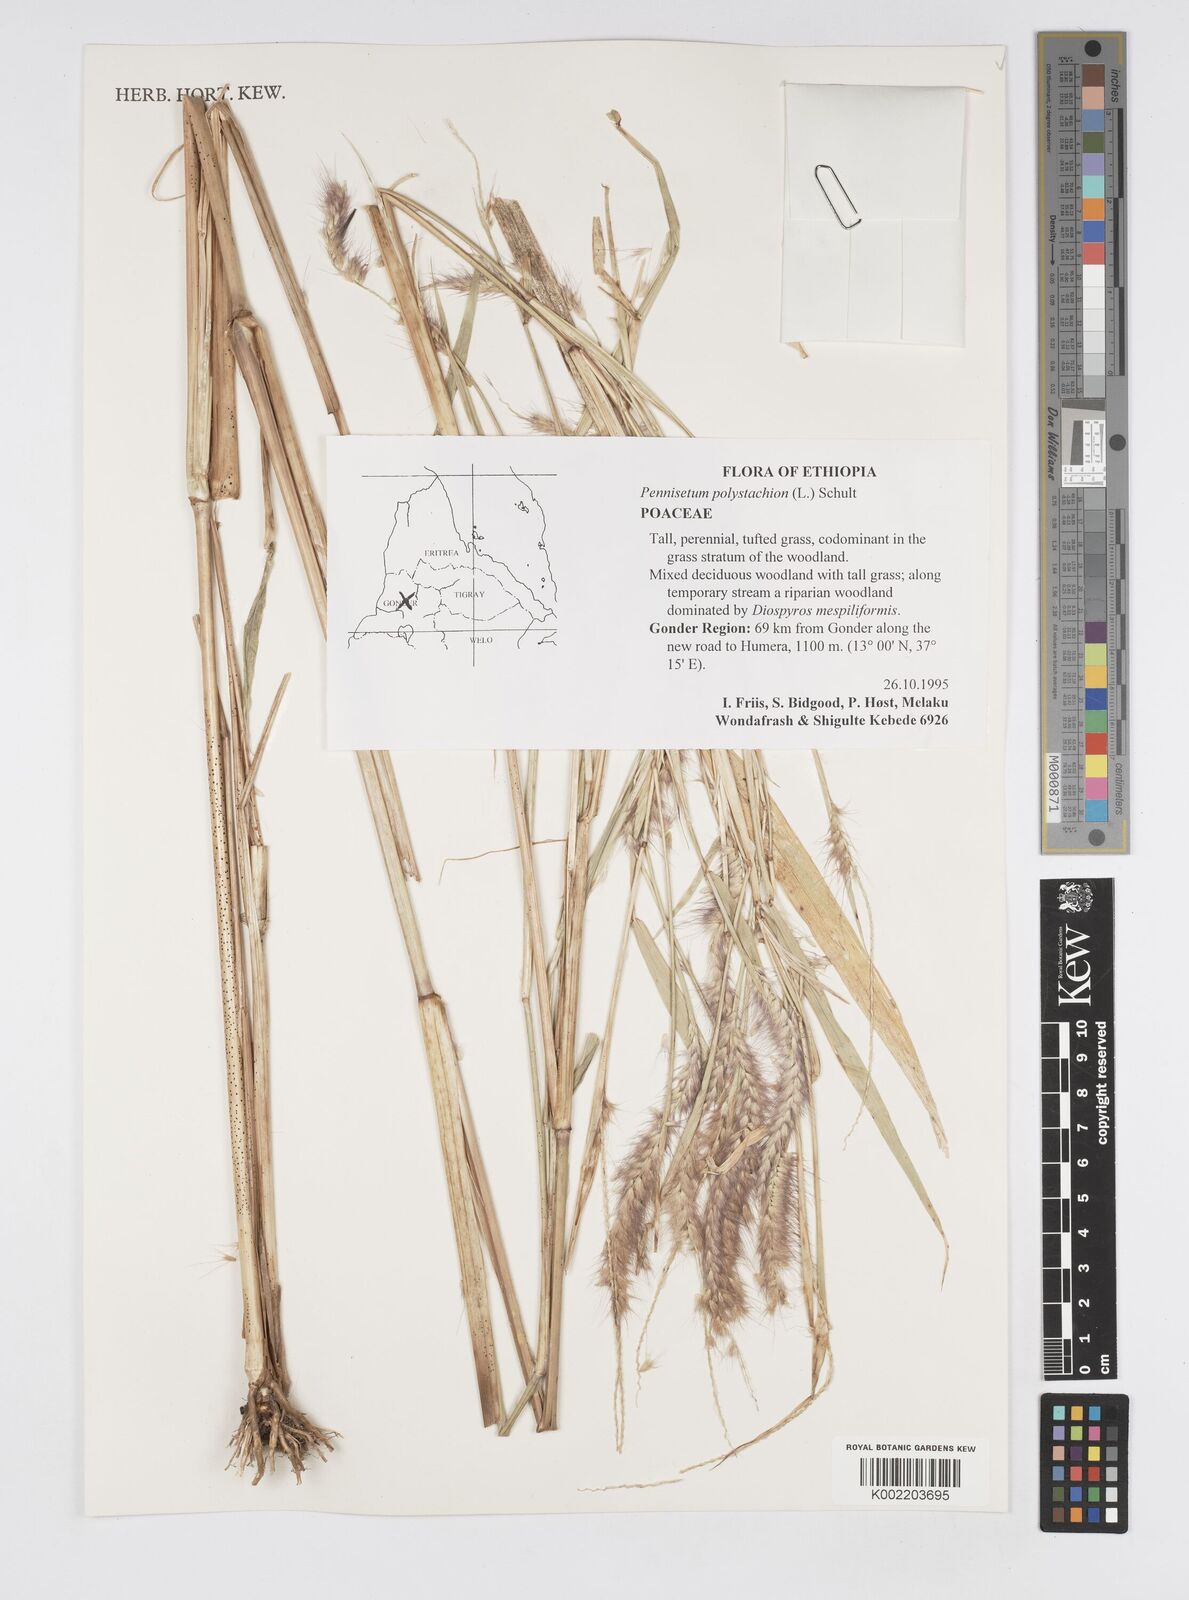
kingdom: Plantae
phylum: Tracheophyta
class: Liliopsida
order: Poales
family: Poaceae
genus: Setaria
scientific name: Setaria parviflora
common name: Knotroot bristle-grass
